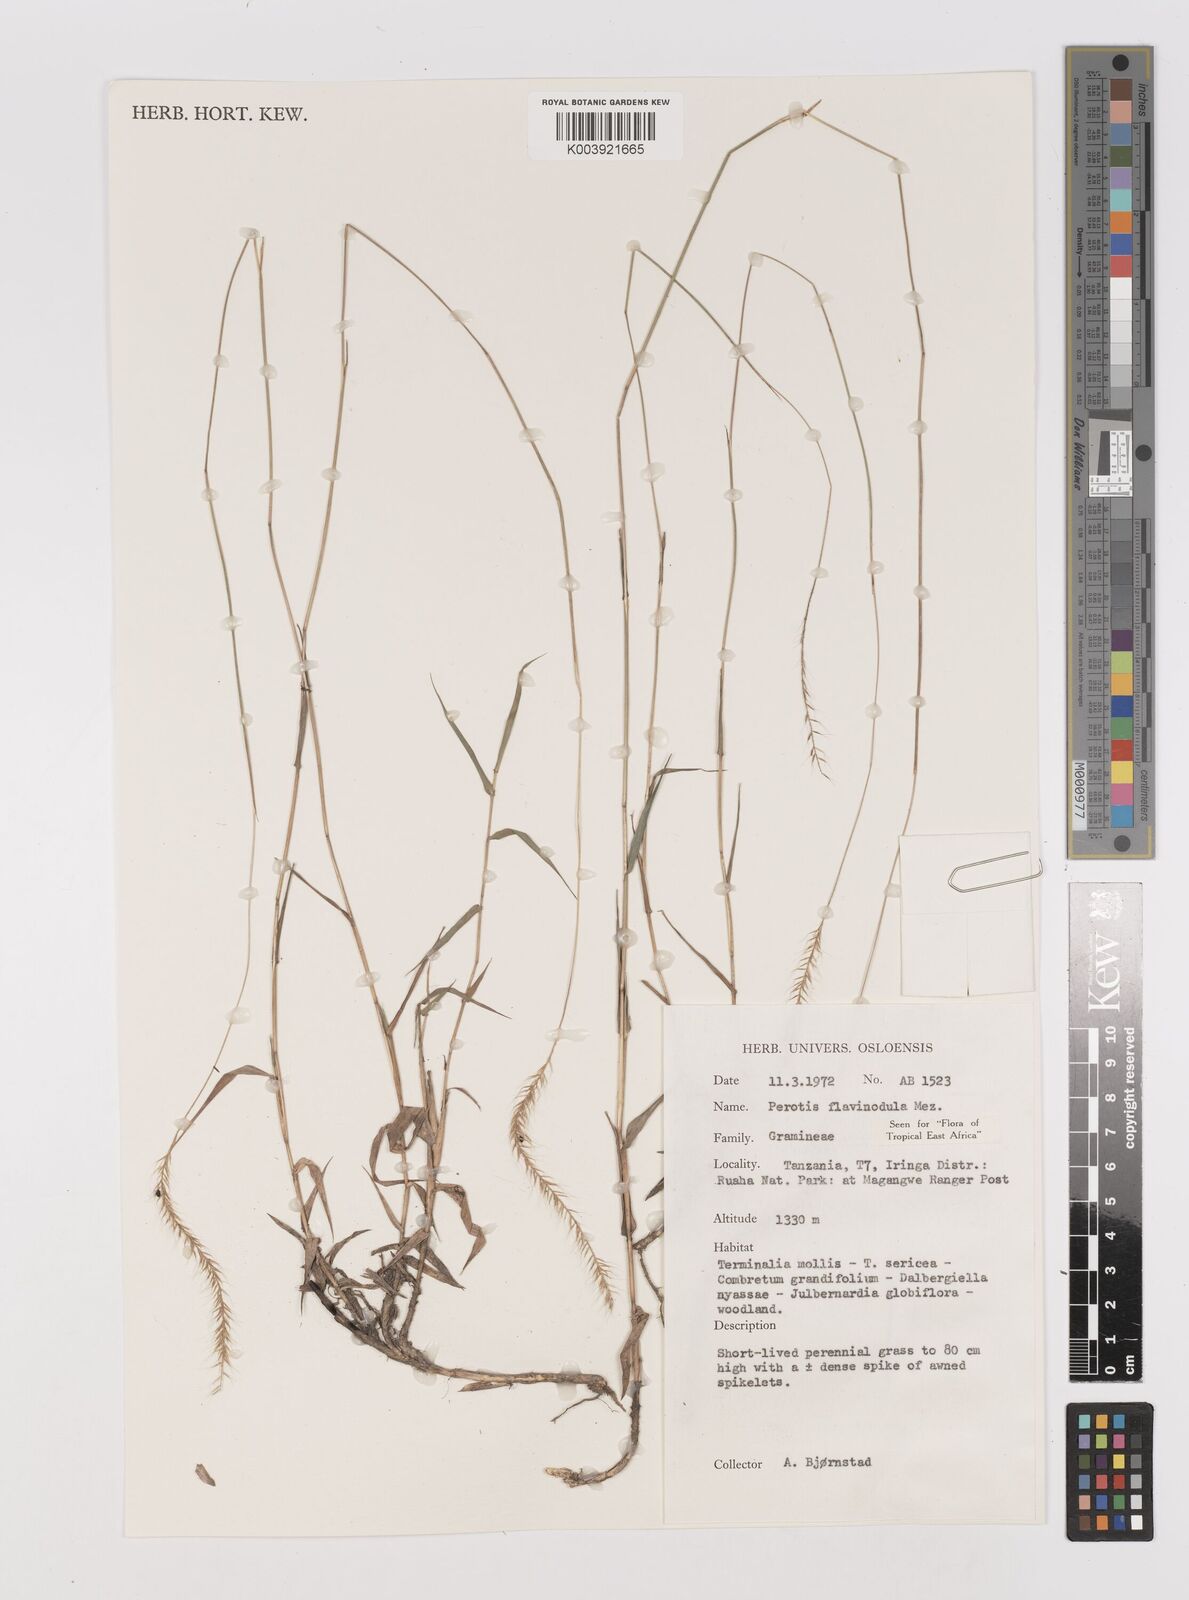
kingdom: Plantae
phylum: Tracheophyta
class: Liliopsida
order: Poales
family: Poaceae
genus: Perotis
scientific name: Perotis flavinodula
